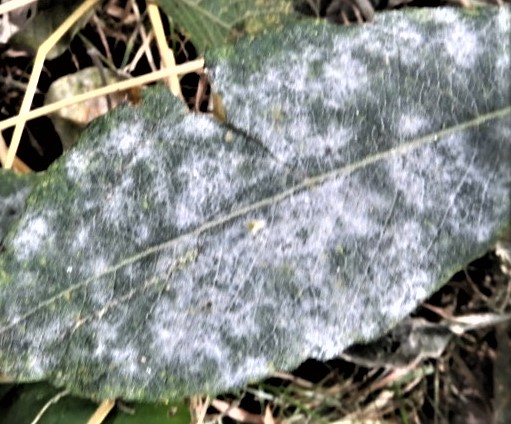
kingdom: Fungi
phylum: Ascomycota
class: Leotiomycetes
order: Helotiales
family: Erysiphaceae
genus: Erysiphe
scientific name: Erysiphe adunca
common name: pile-meldug
